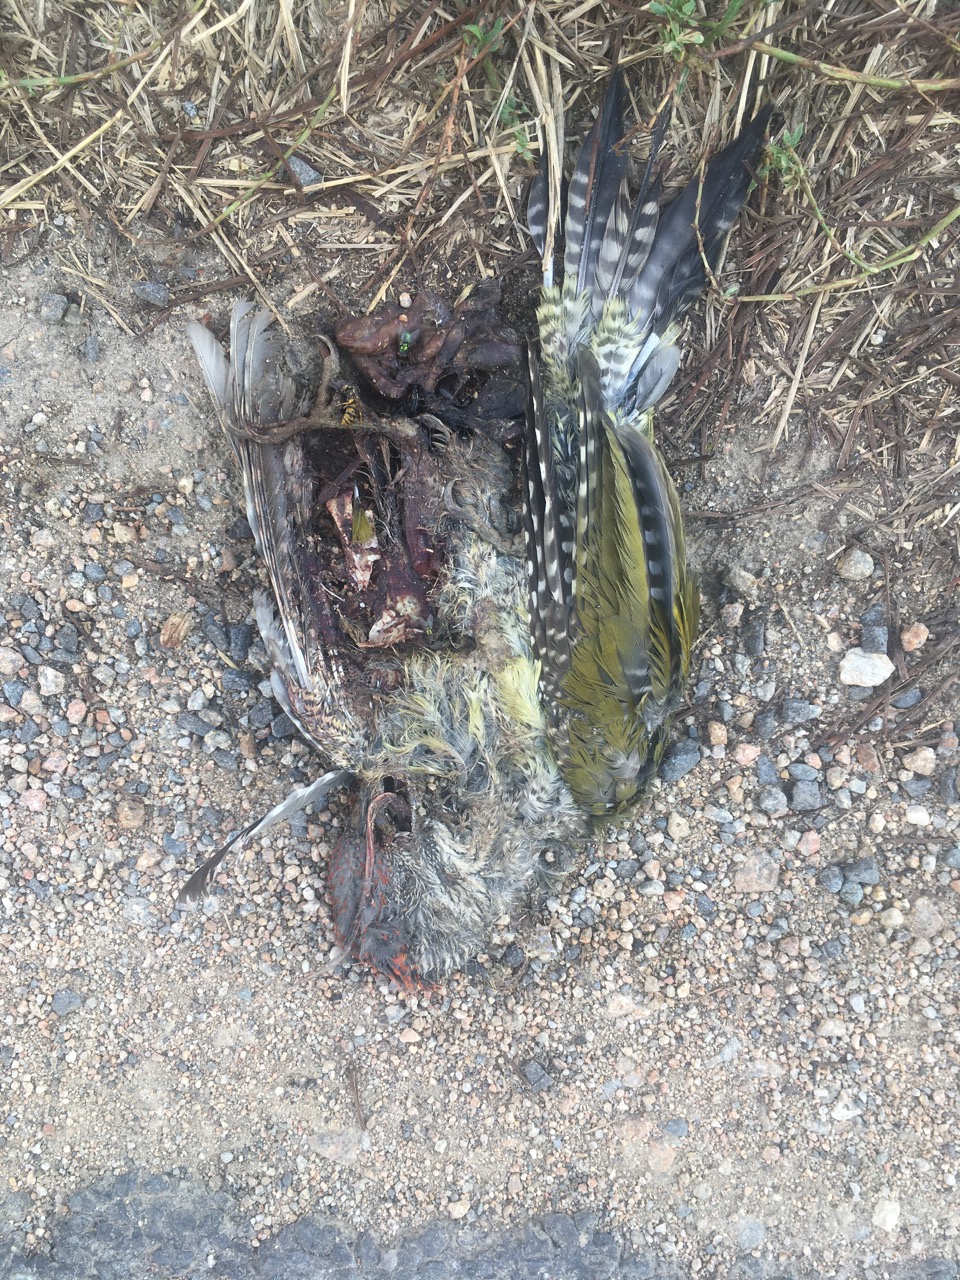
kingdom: Animalia
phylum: Chordata
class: Aves
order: Piciformes
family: Picidae
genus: Picus
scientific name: Picus viridis
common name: European green woodpecker
